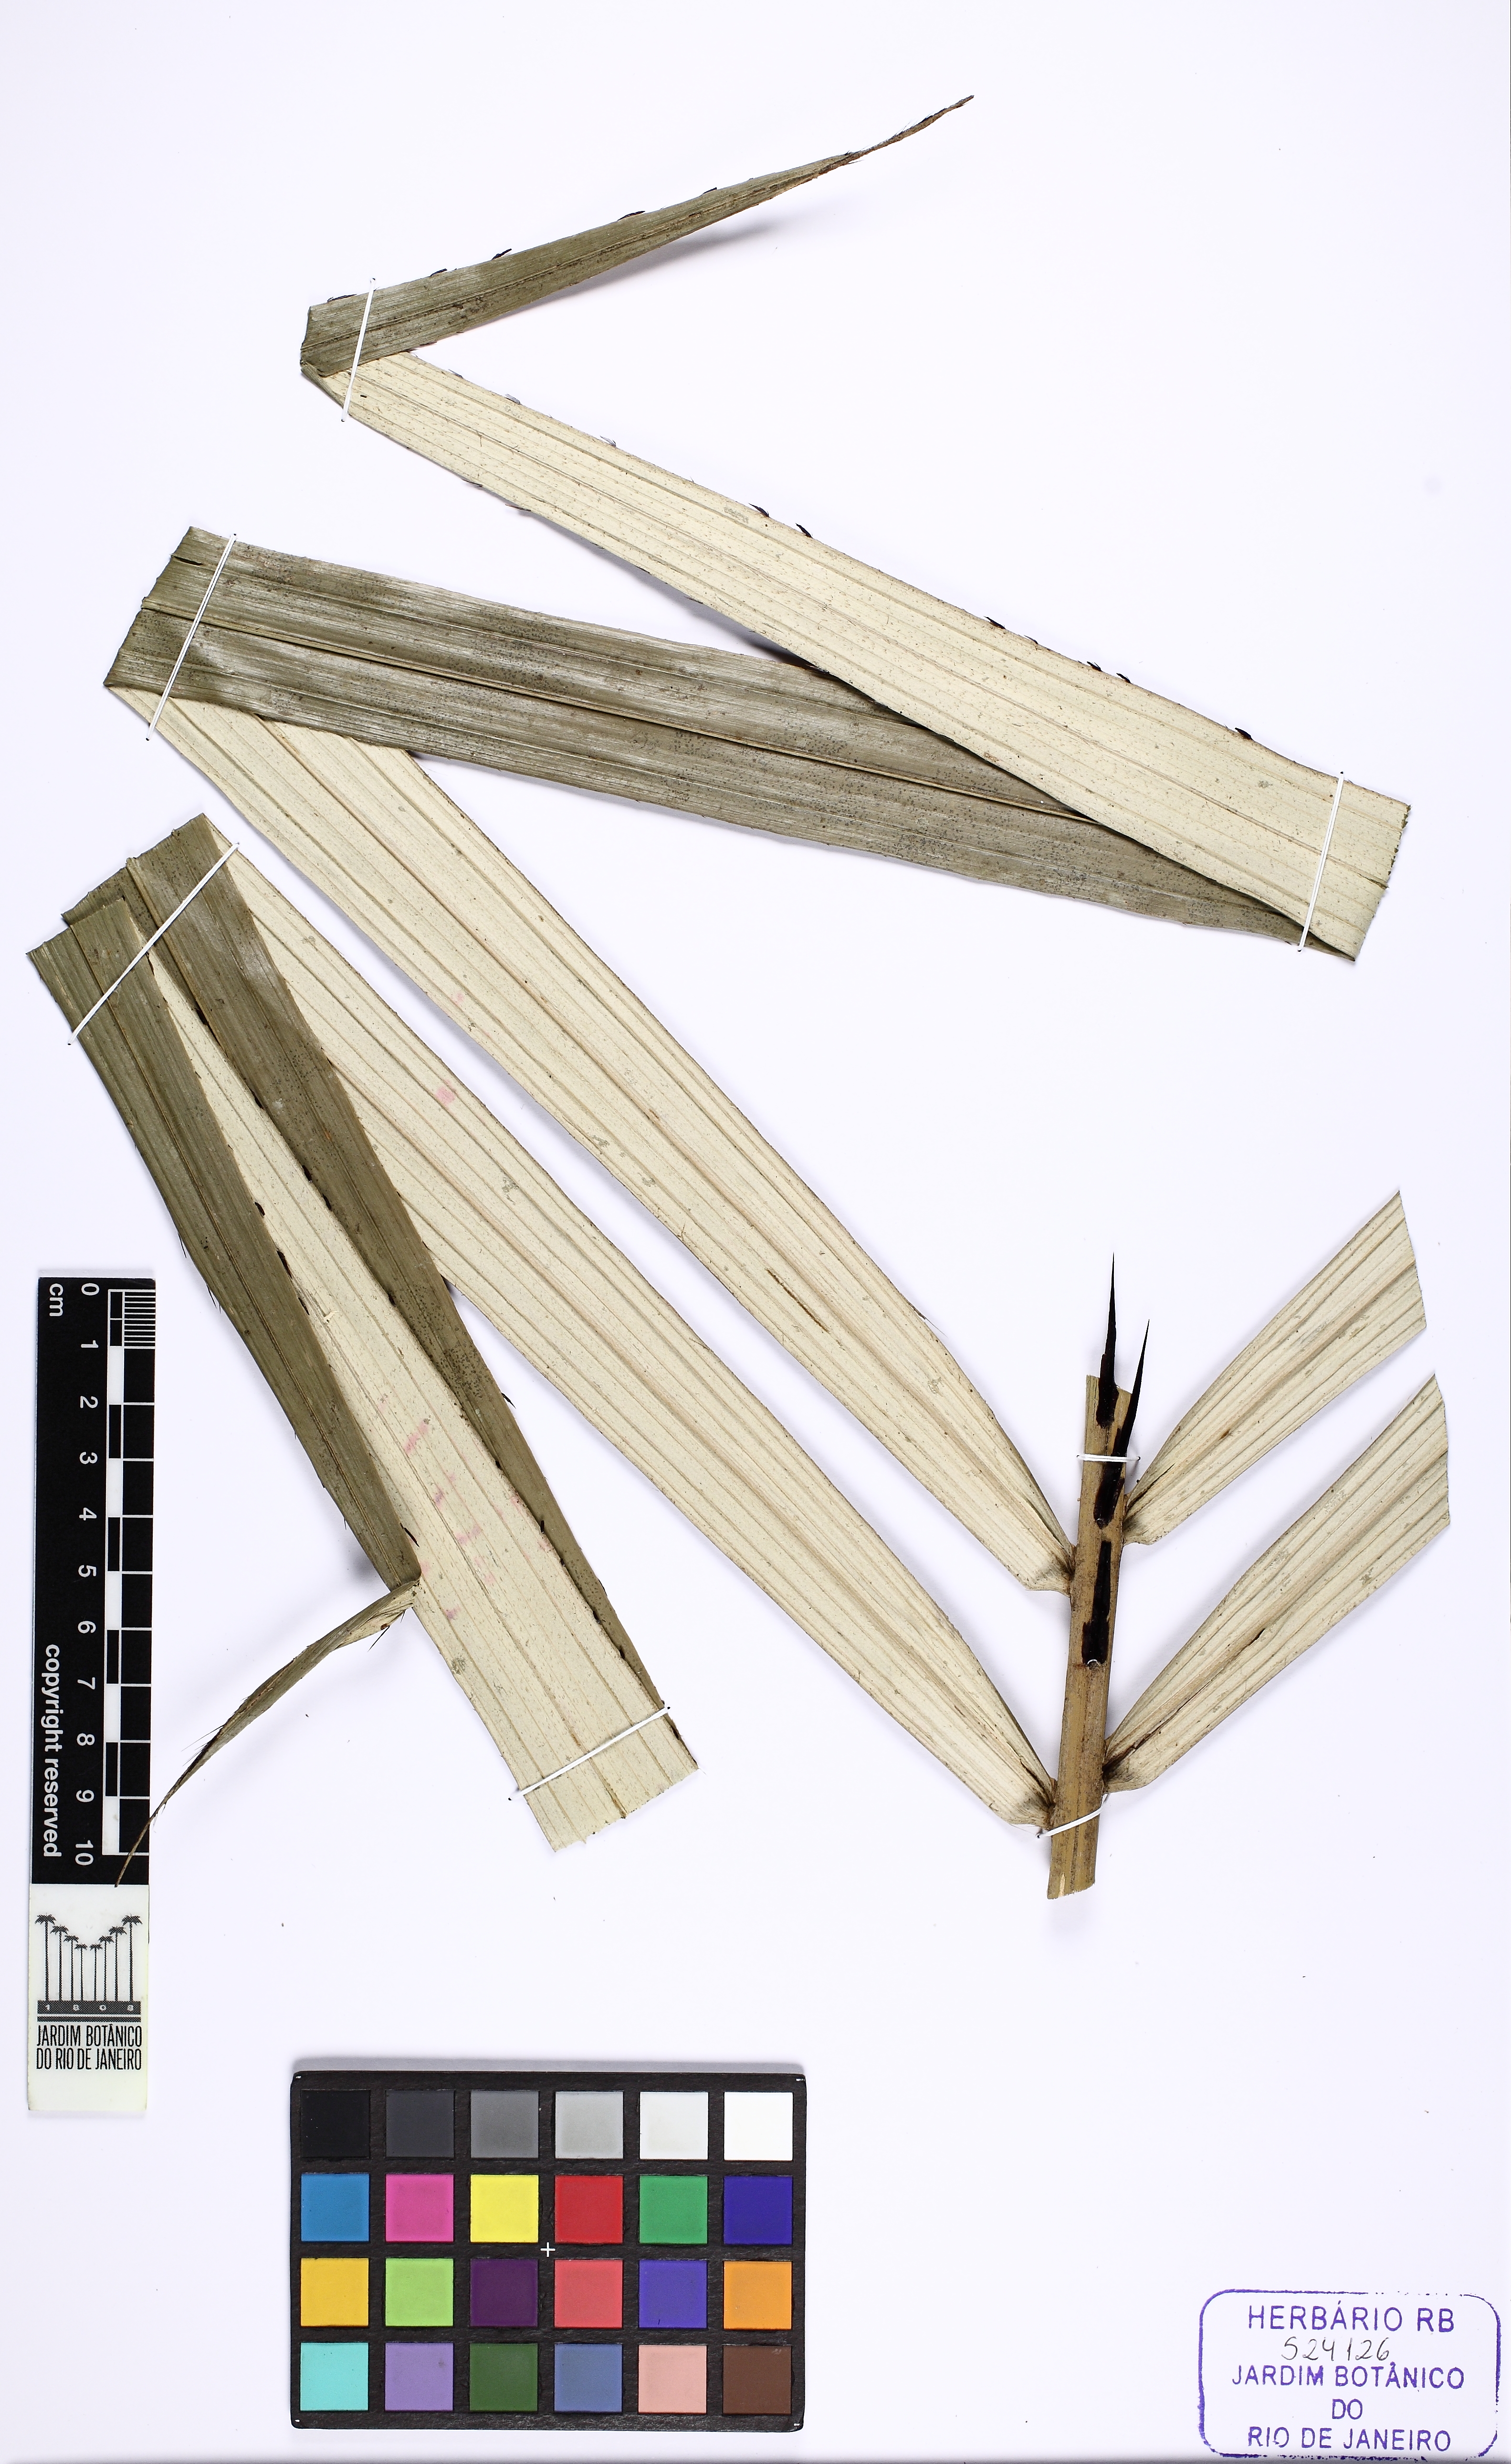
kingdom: Plantae
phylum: Tracheophyta
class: Liliopsida
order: Arecales
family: Arecaceae
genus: Astrocaryum
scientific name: Astrocaryum rodriguesii
